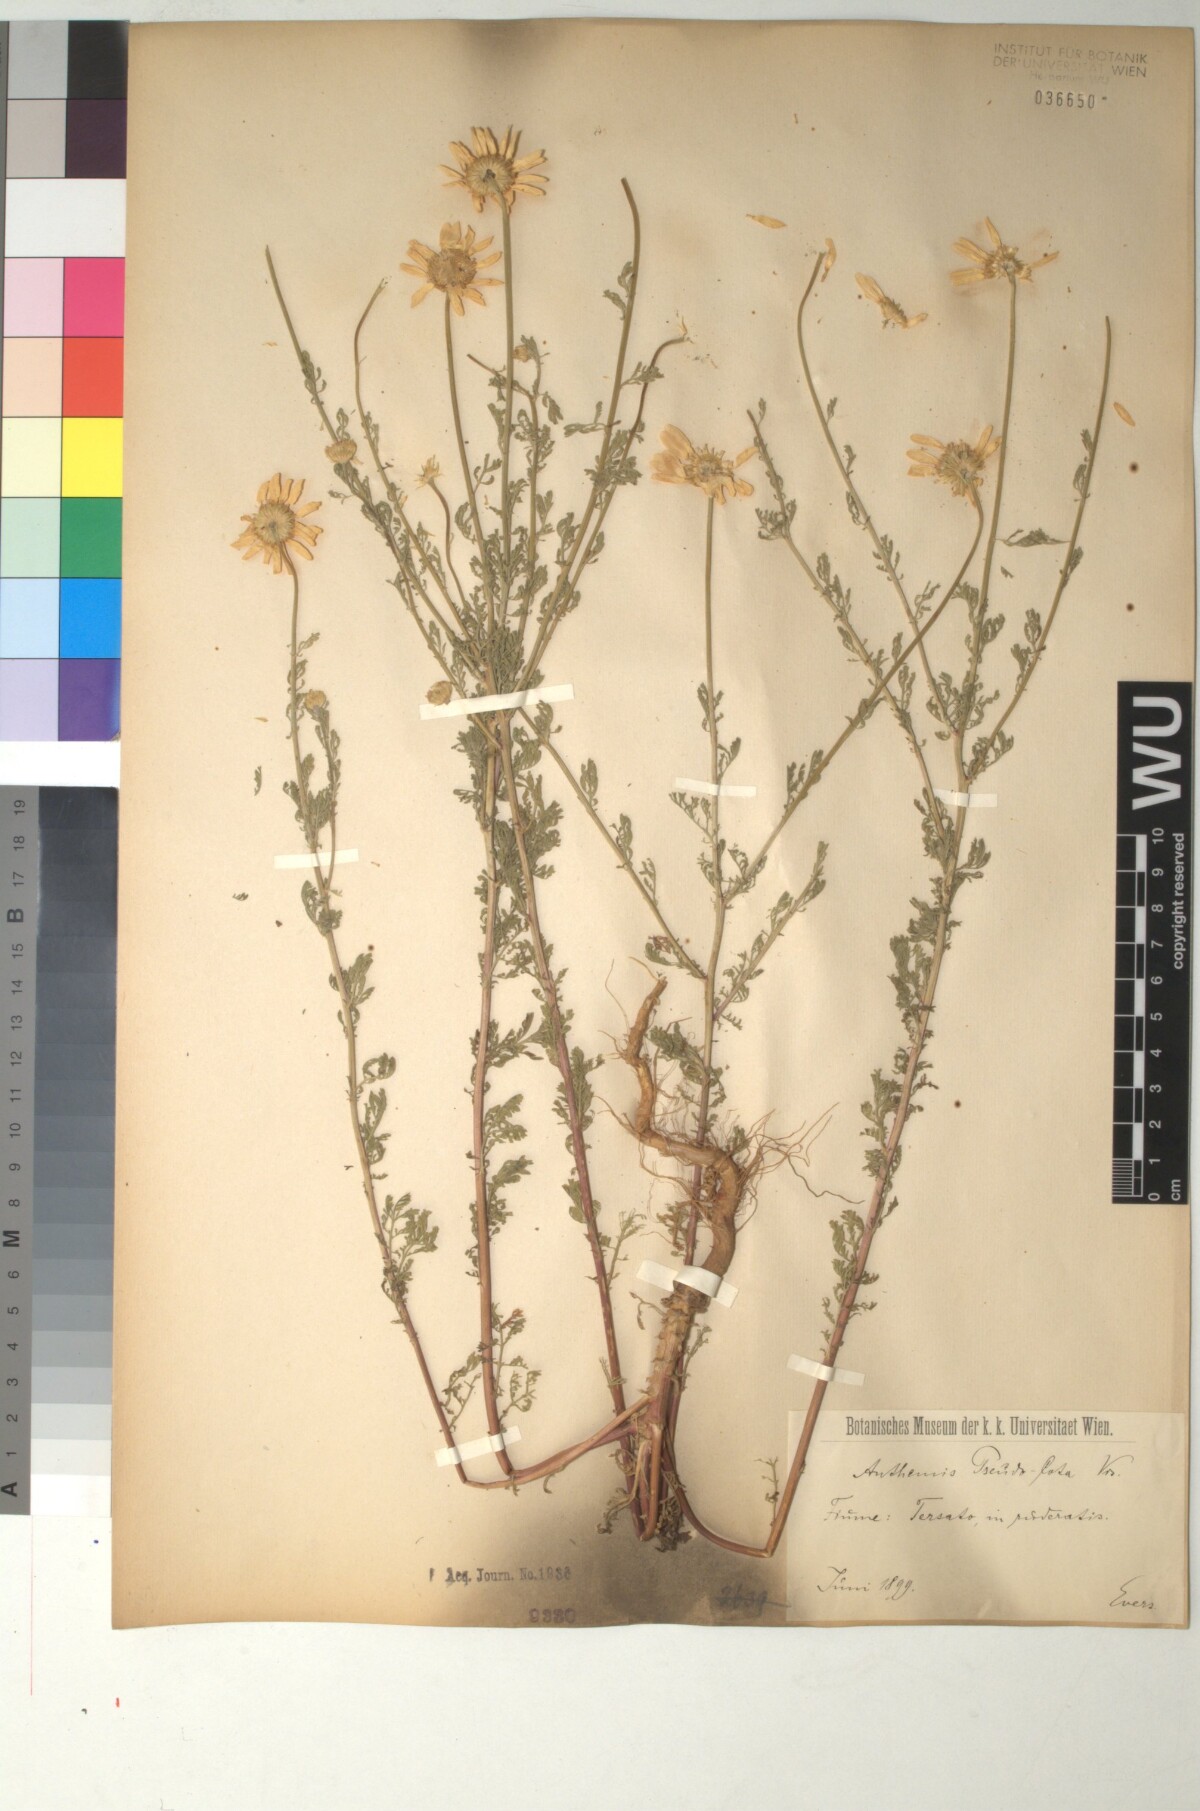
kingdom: Plantae
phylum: Tracheophyta
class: Magnoliopsida
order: Asterales
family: Asteraceae
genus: Cota
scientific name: Cota segetalis
